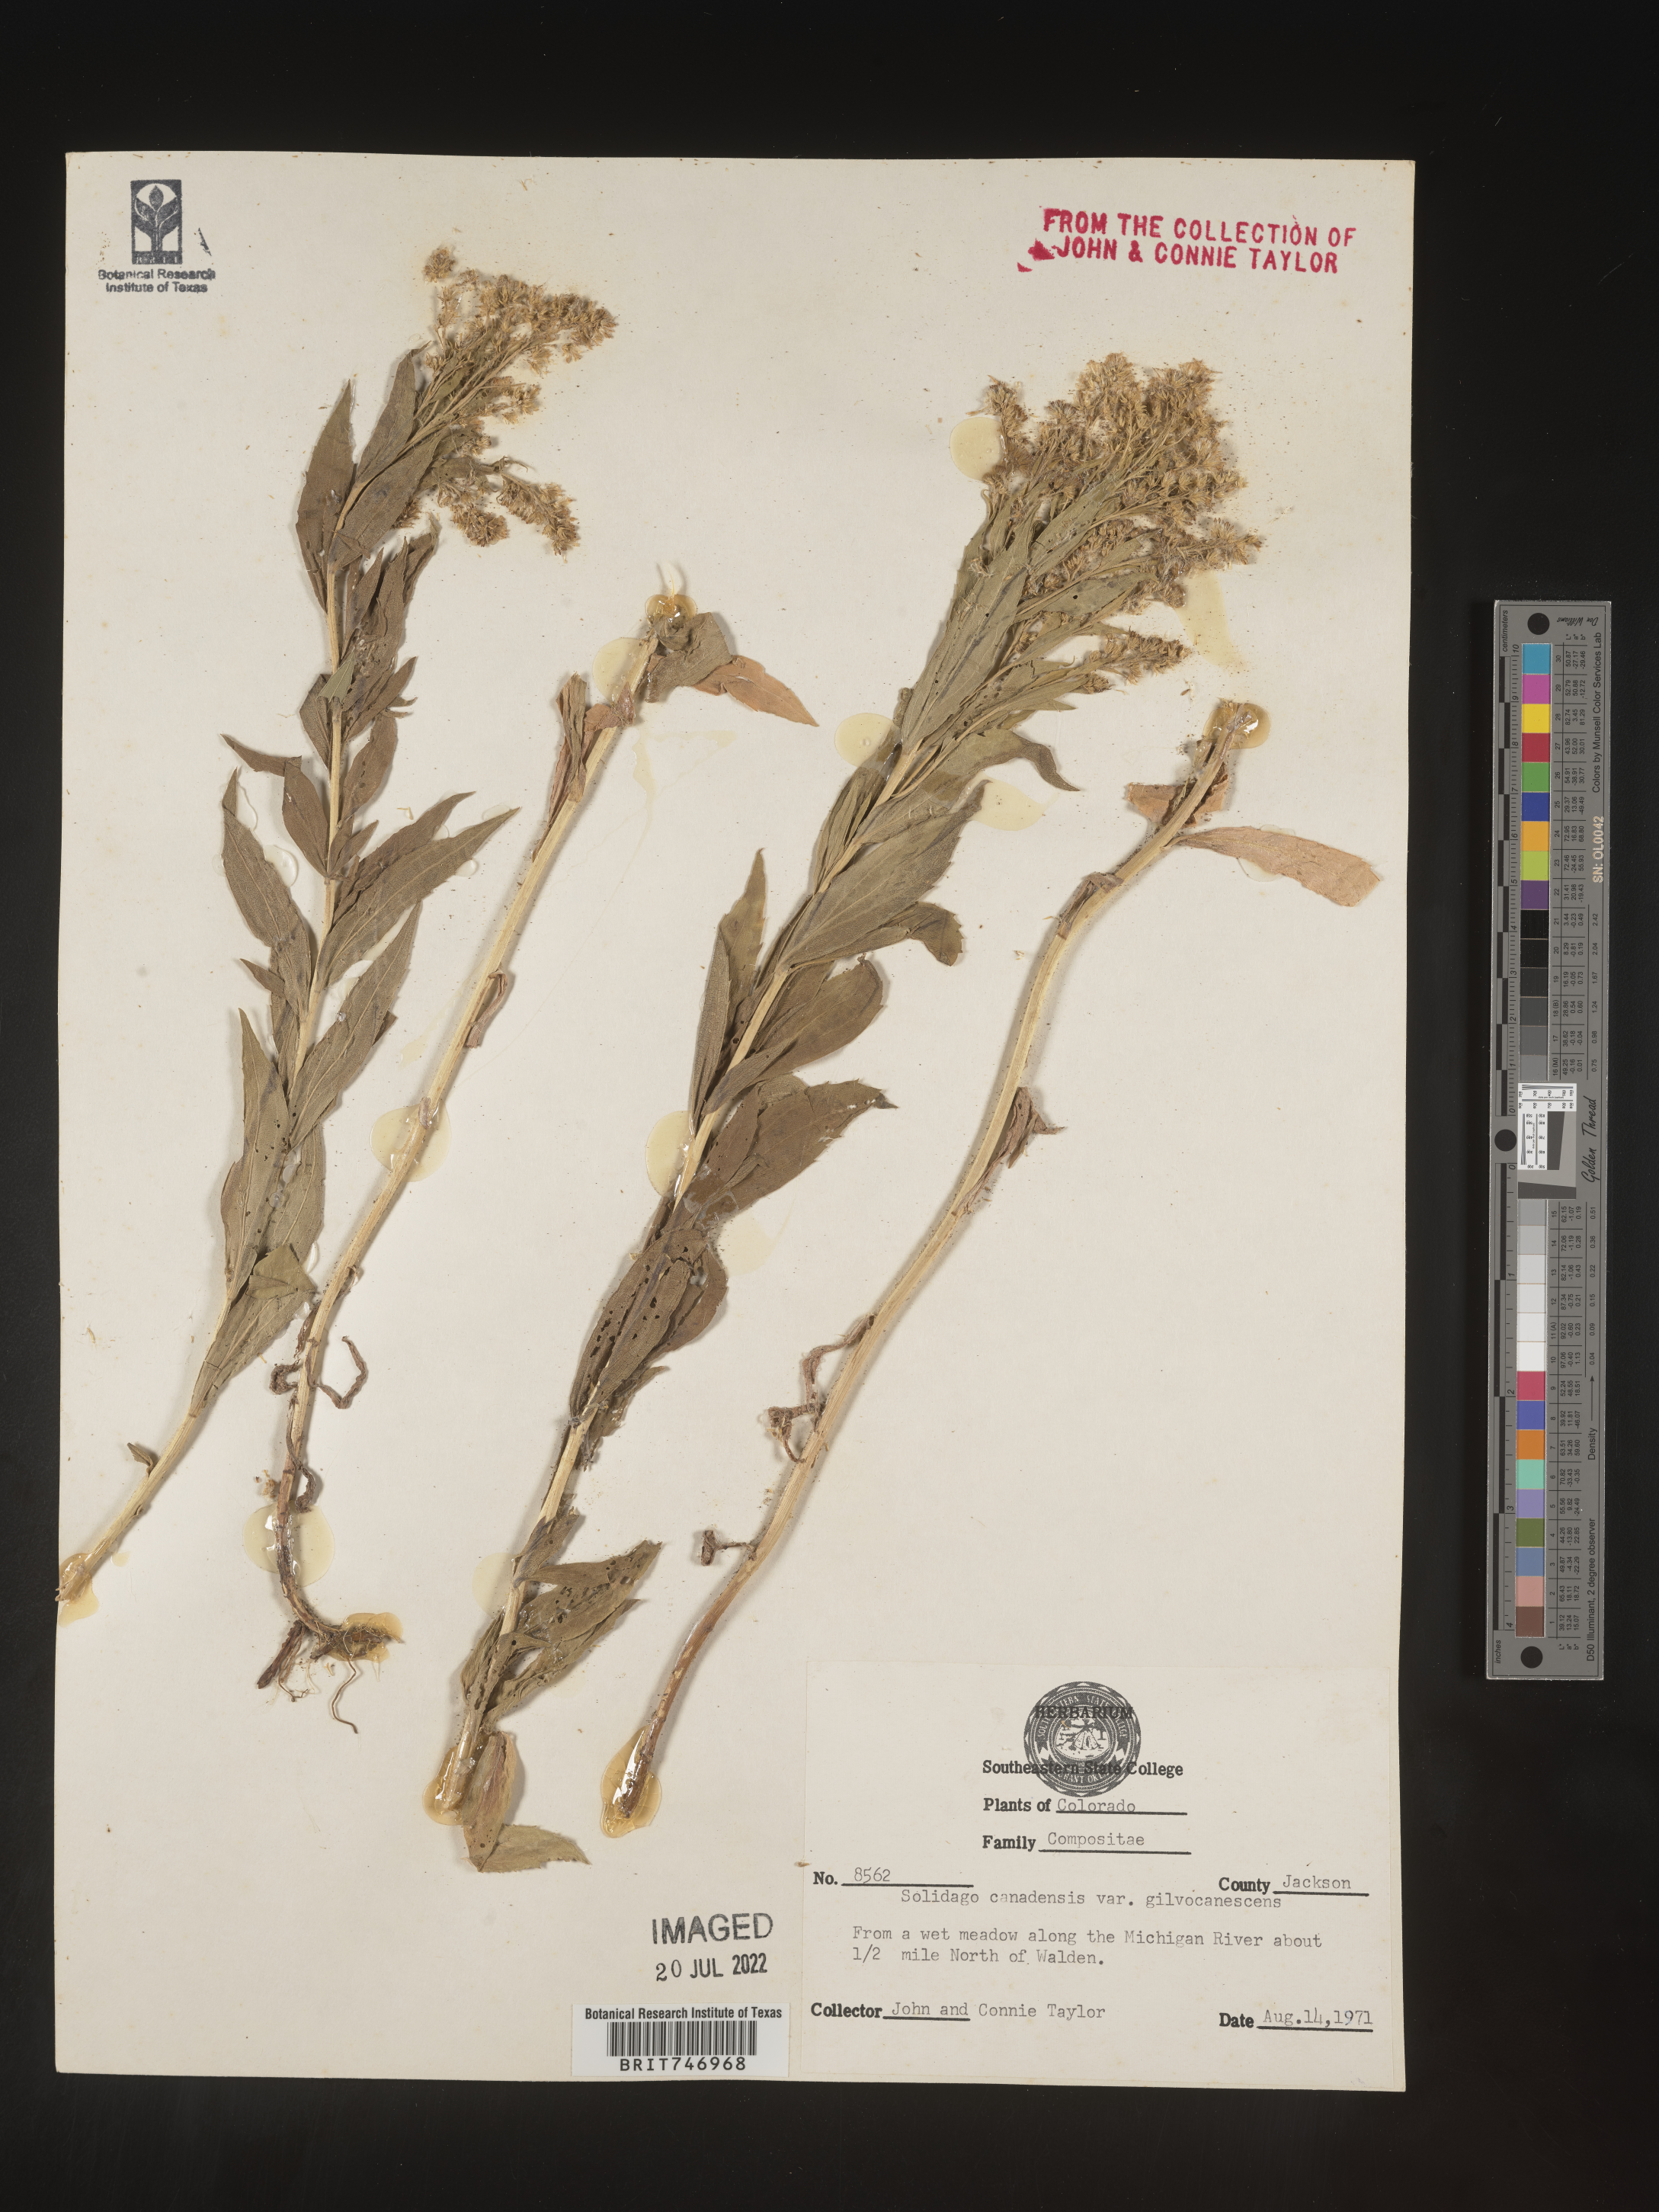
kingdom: Plantae
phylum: Tracheophyta
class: Magnoliopsida
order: Asterales
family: Asteraceae
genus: Solidago
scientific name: Solidago lepida
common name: Western canada goldenrod
